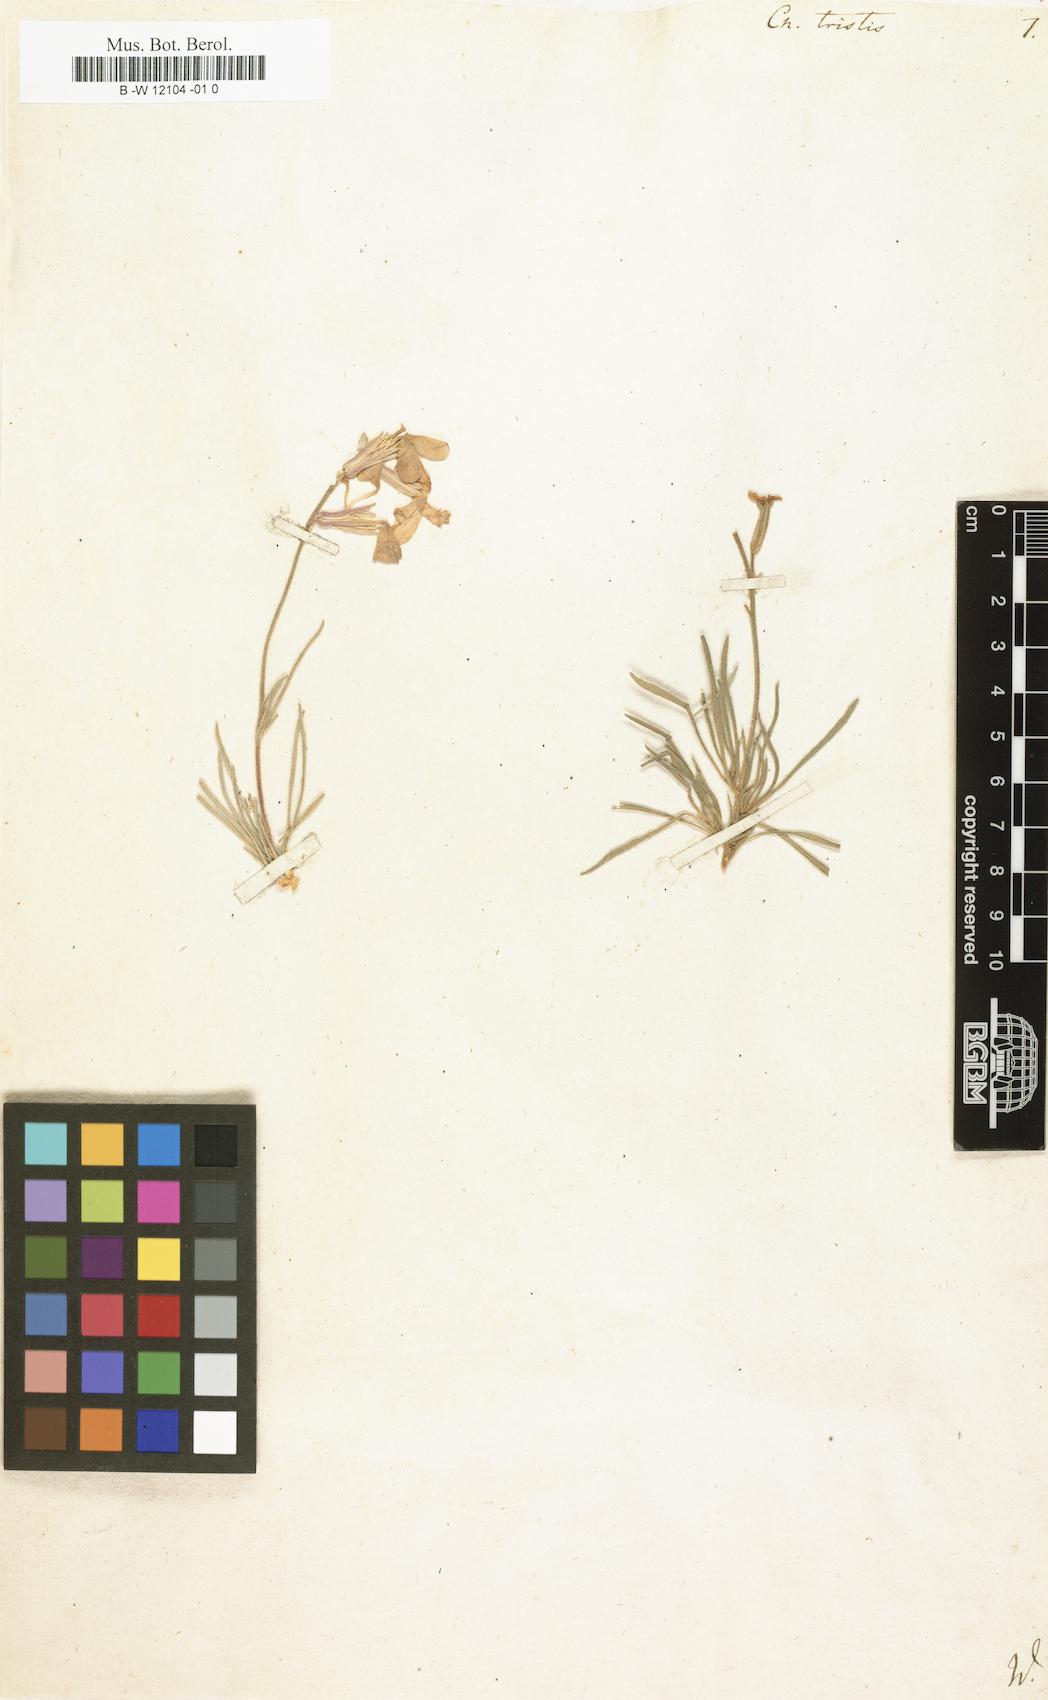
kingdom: Plantae
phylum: Tracheophyta
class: Magnoliopsida
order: Brassicales
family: Brassicaceae
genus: Matthiola
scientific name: Matthiola
